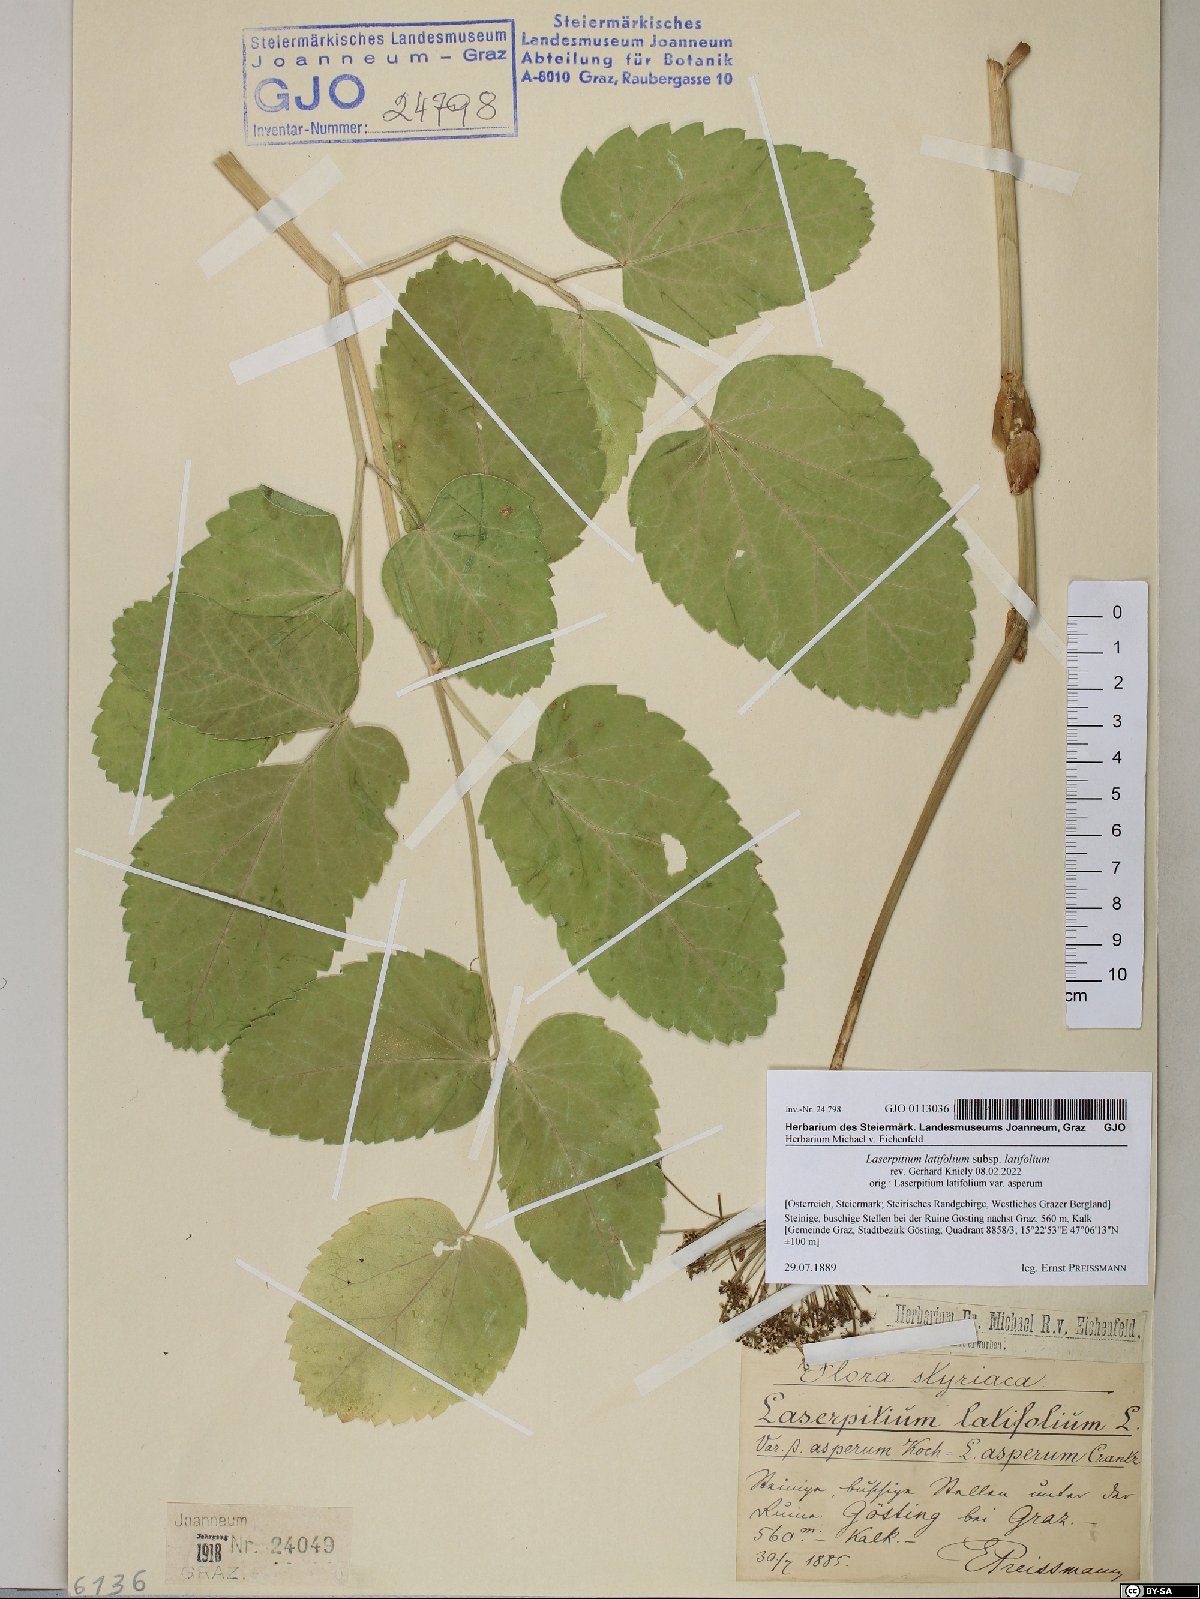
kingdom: Plantae
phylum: Tracheophyta
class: Magnoliopsida
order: Apiales
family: Apiaceae
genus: Laserpitium
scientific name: Laserpitium latifolium
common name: Broadleaf sermountain
